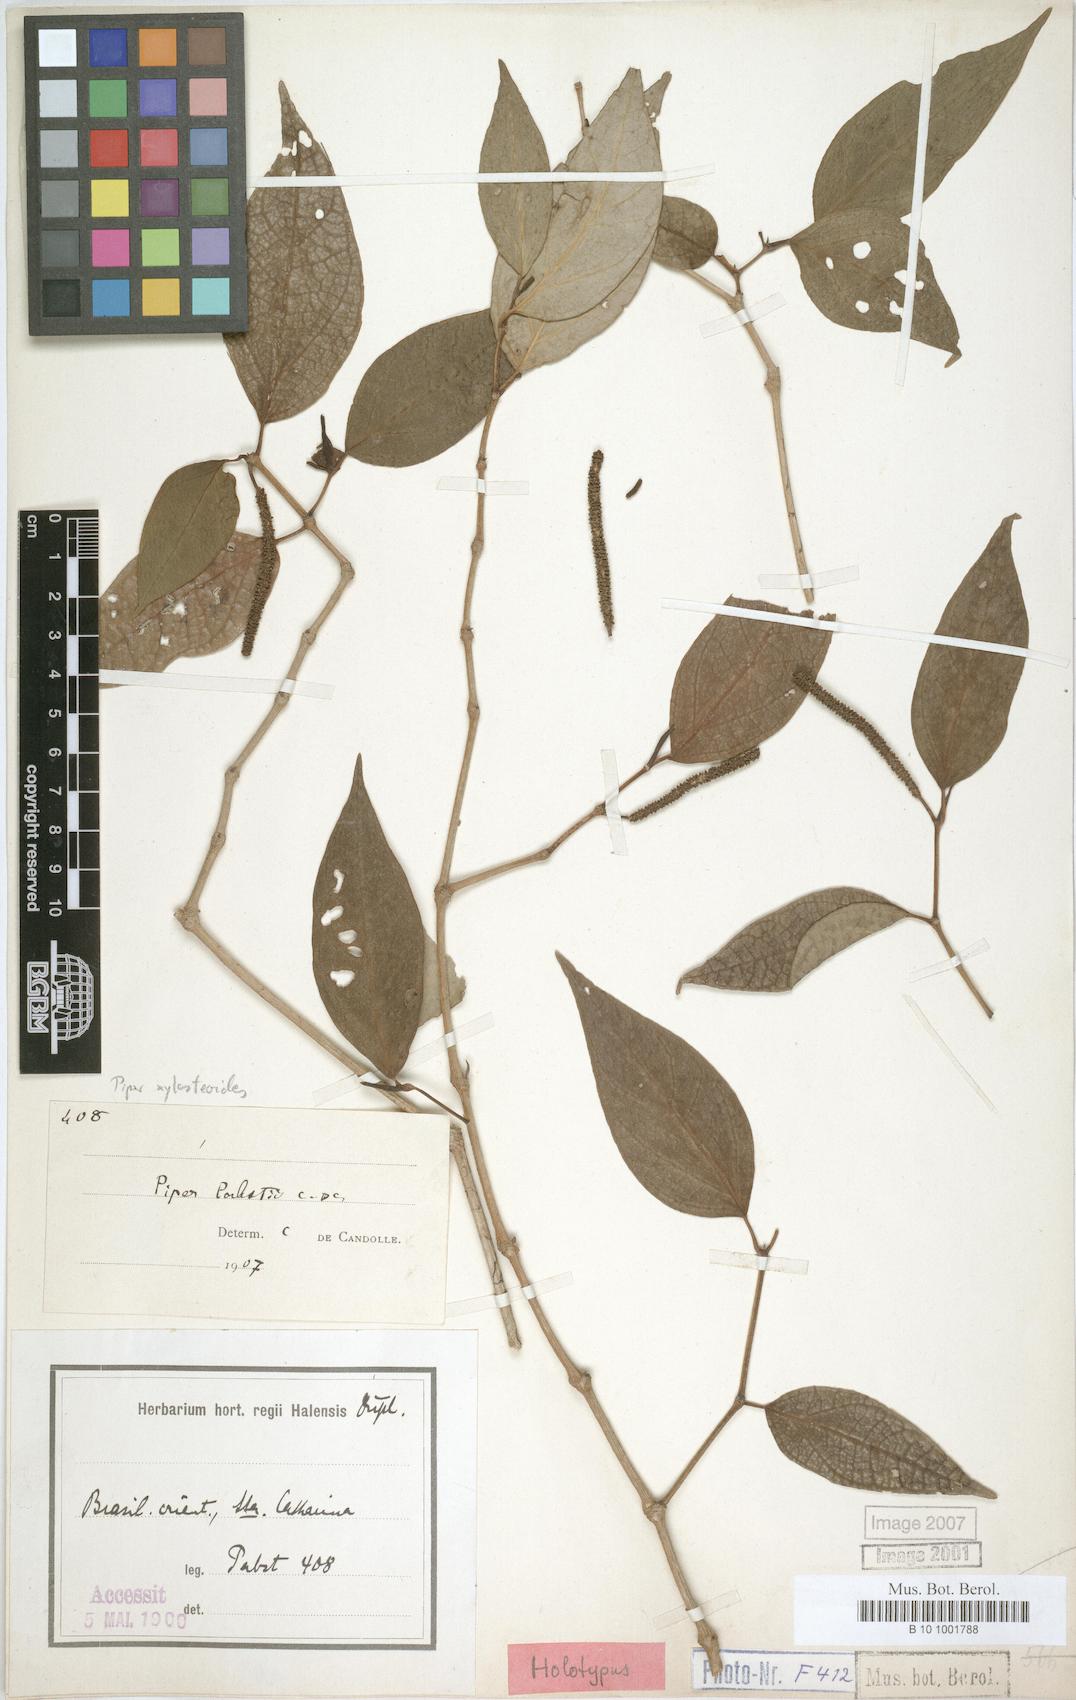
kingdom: Plantae
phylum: Tracheophyta
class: Magnoliopsida
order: Piperales
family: Piperaceae
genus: Piper
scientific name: Piper xylosteoides
